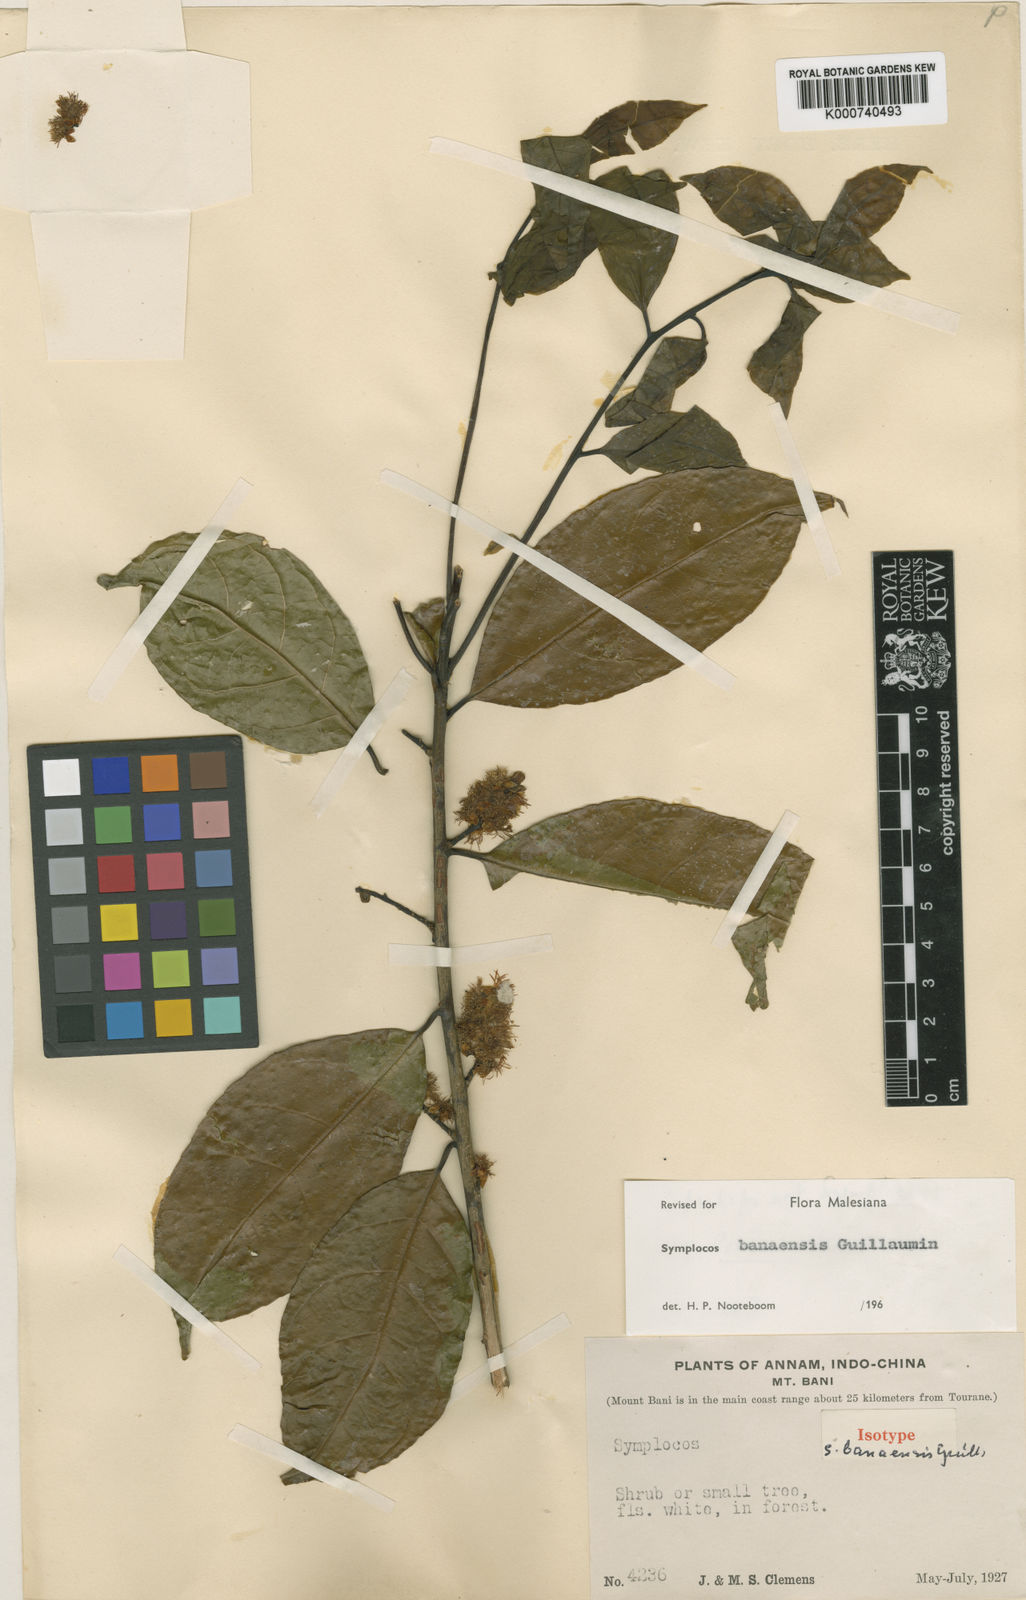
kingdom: Plantae
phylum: Tracheophyta
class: Magnoliopsida
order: Ericales
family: Symplocaceae
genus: Symplocos
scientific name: Symplocos banaensis
